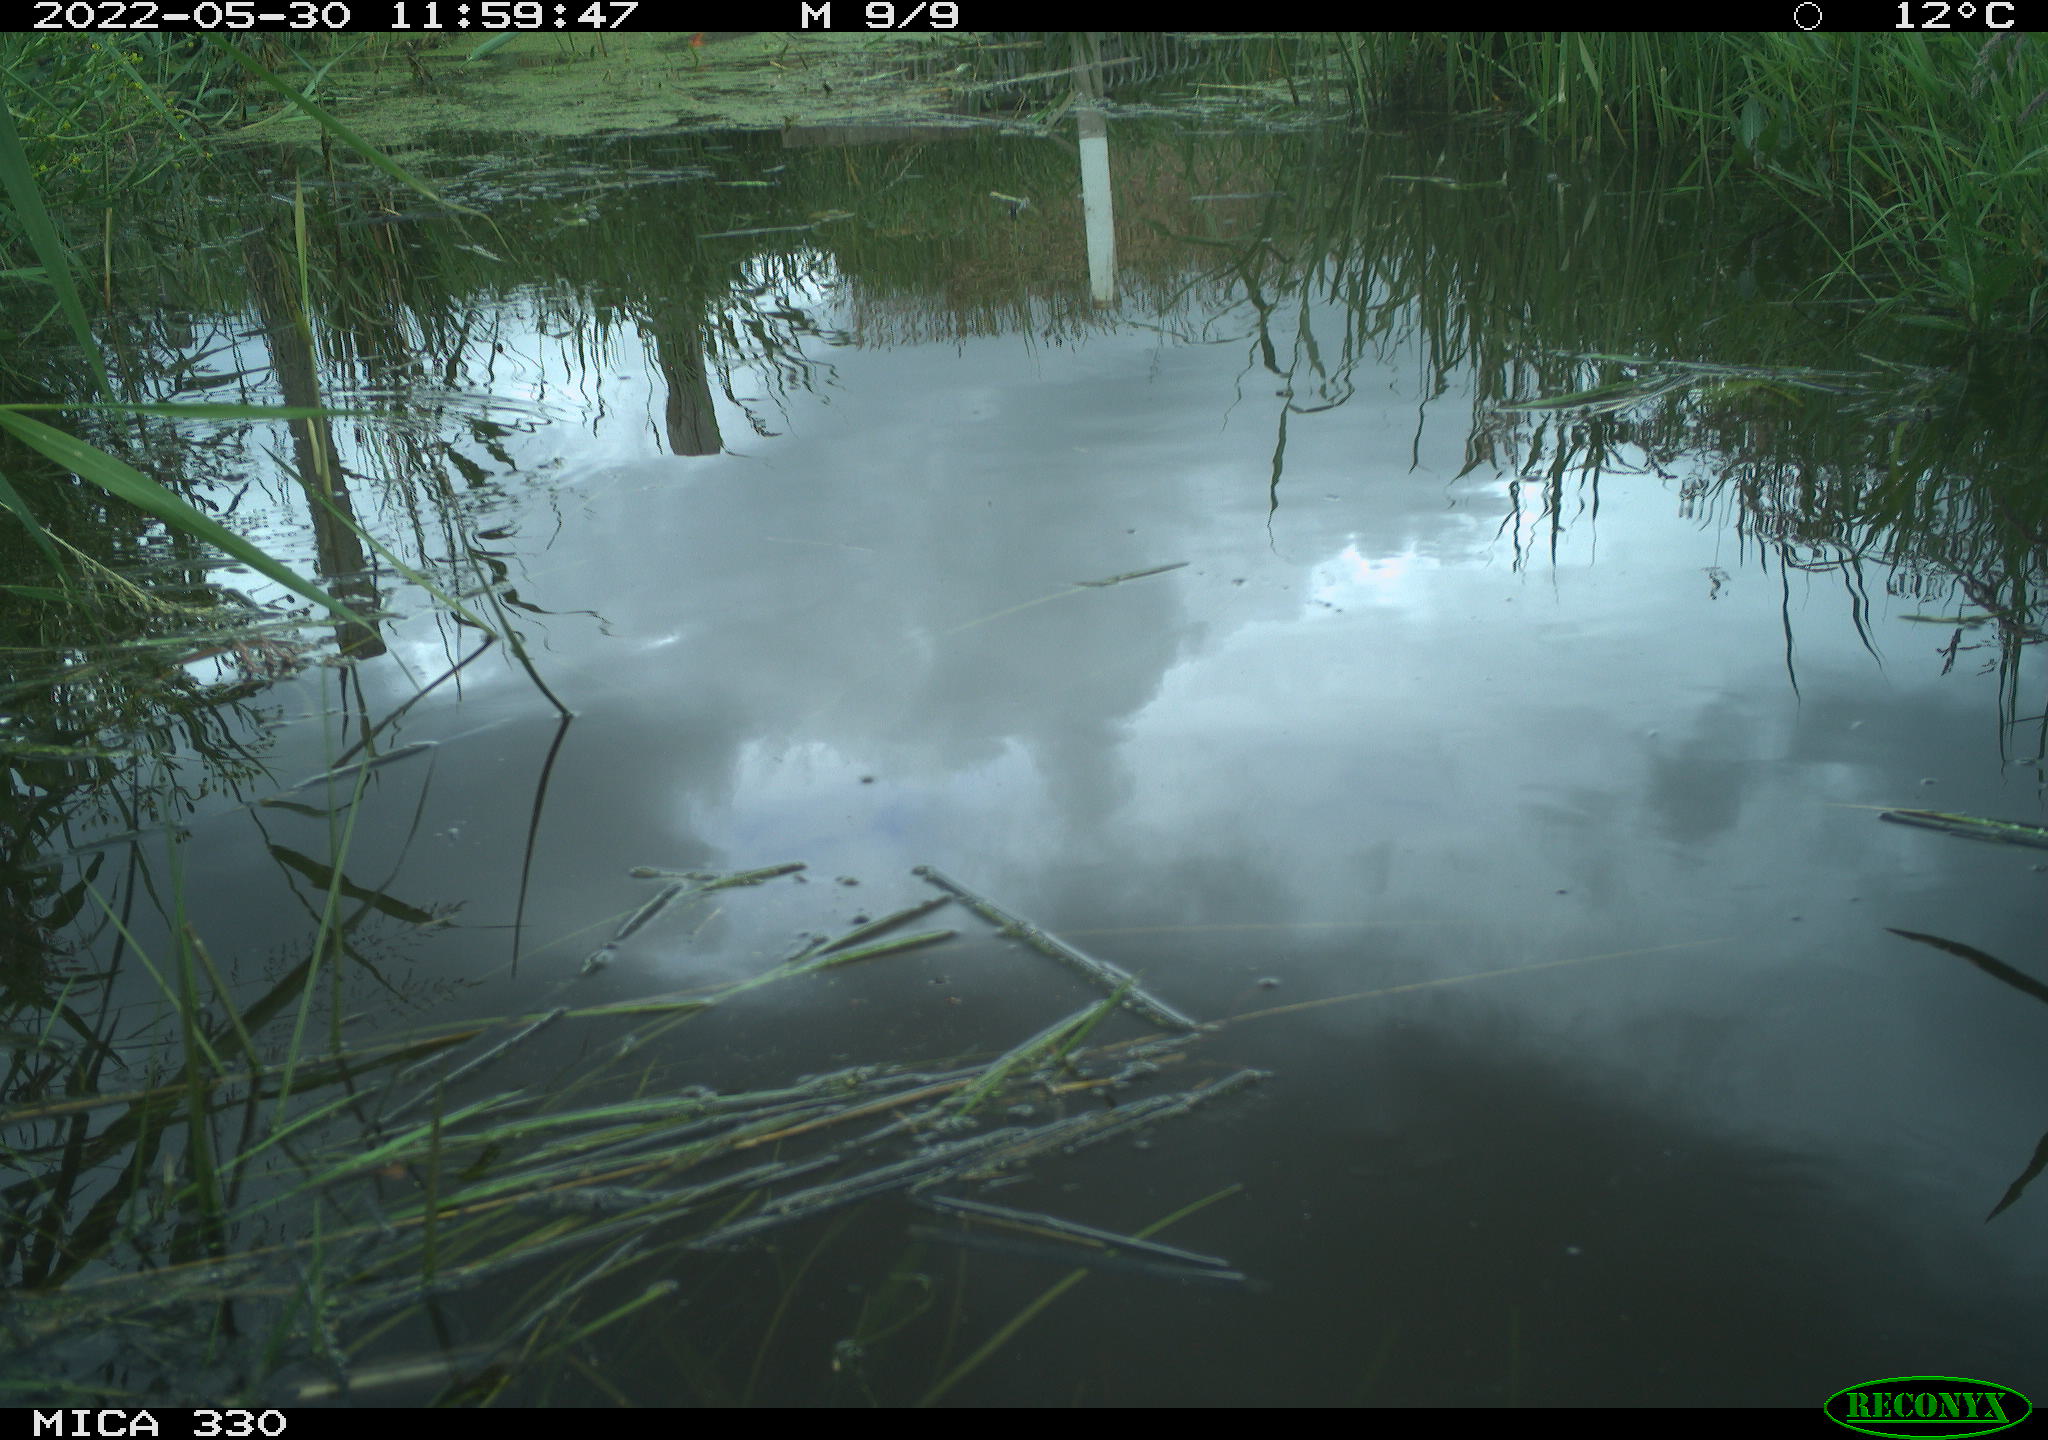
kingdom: Animalia
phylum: Chordata
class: Aves
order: Anseriformes
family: Anatidae
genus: Anas
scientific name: Anas platyrhynchos
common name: Mallard
